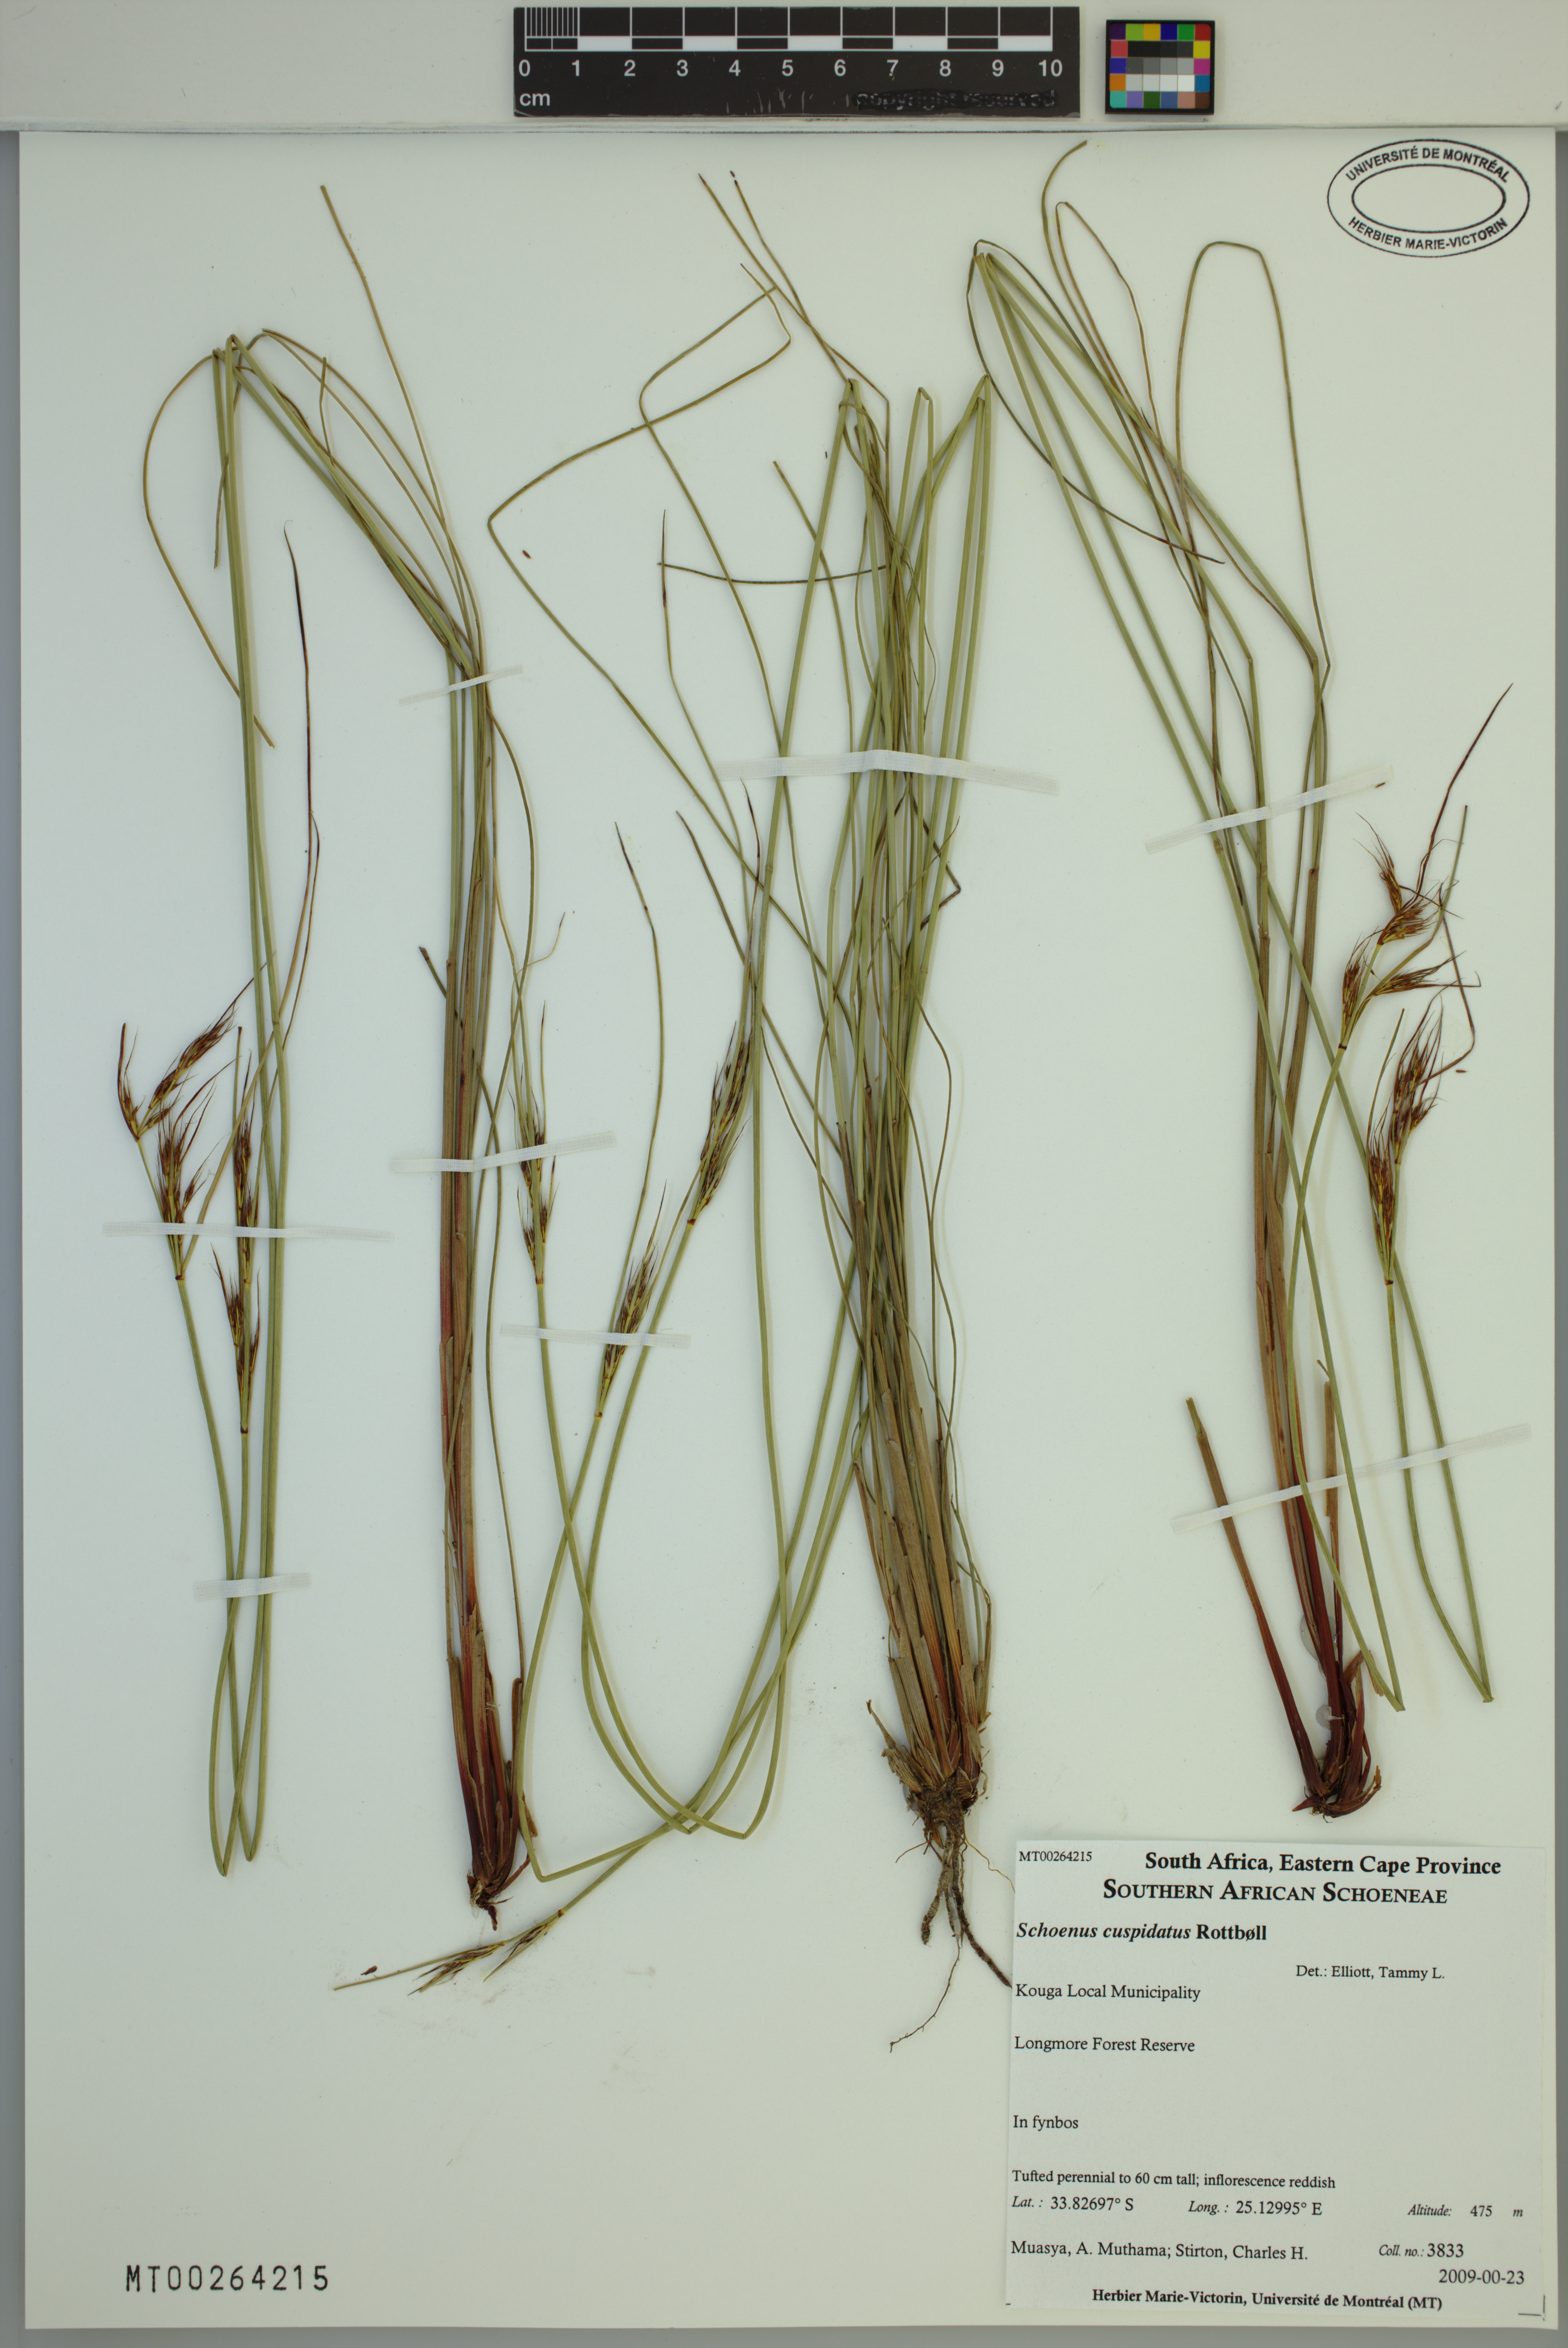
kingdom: Plantae
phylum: Tracheophyta
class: Liliopsida
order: Poales
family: Cyperaceae
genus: Schoenus
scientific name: Schoenus cuspidatus
